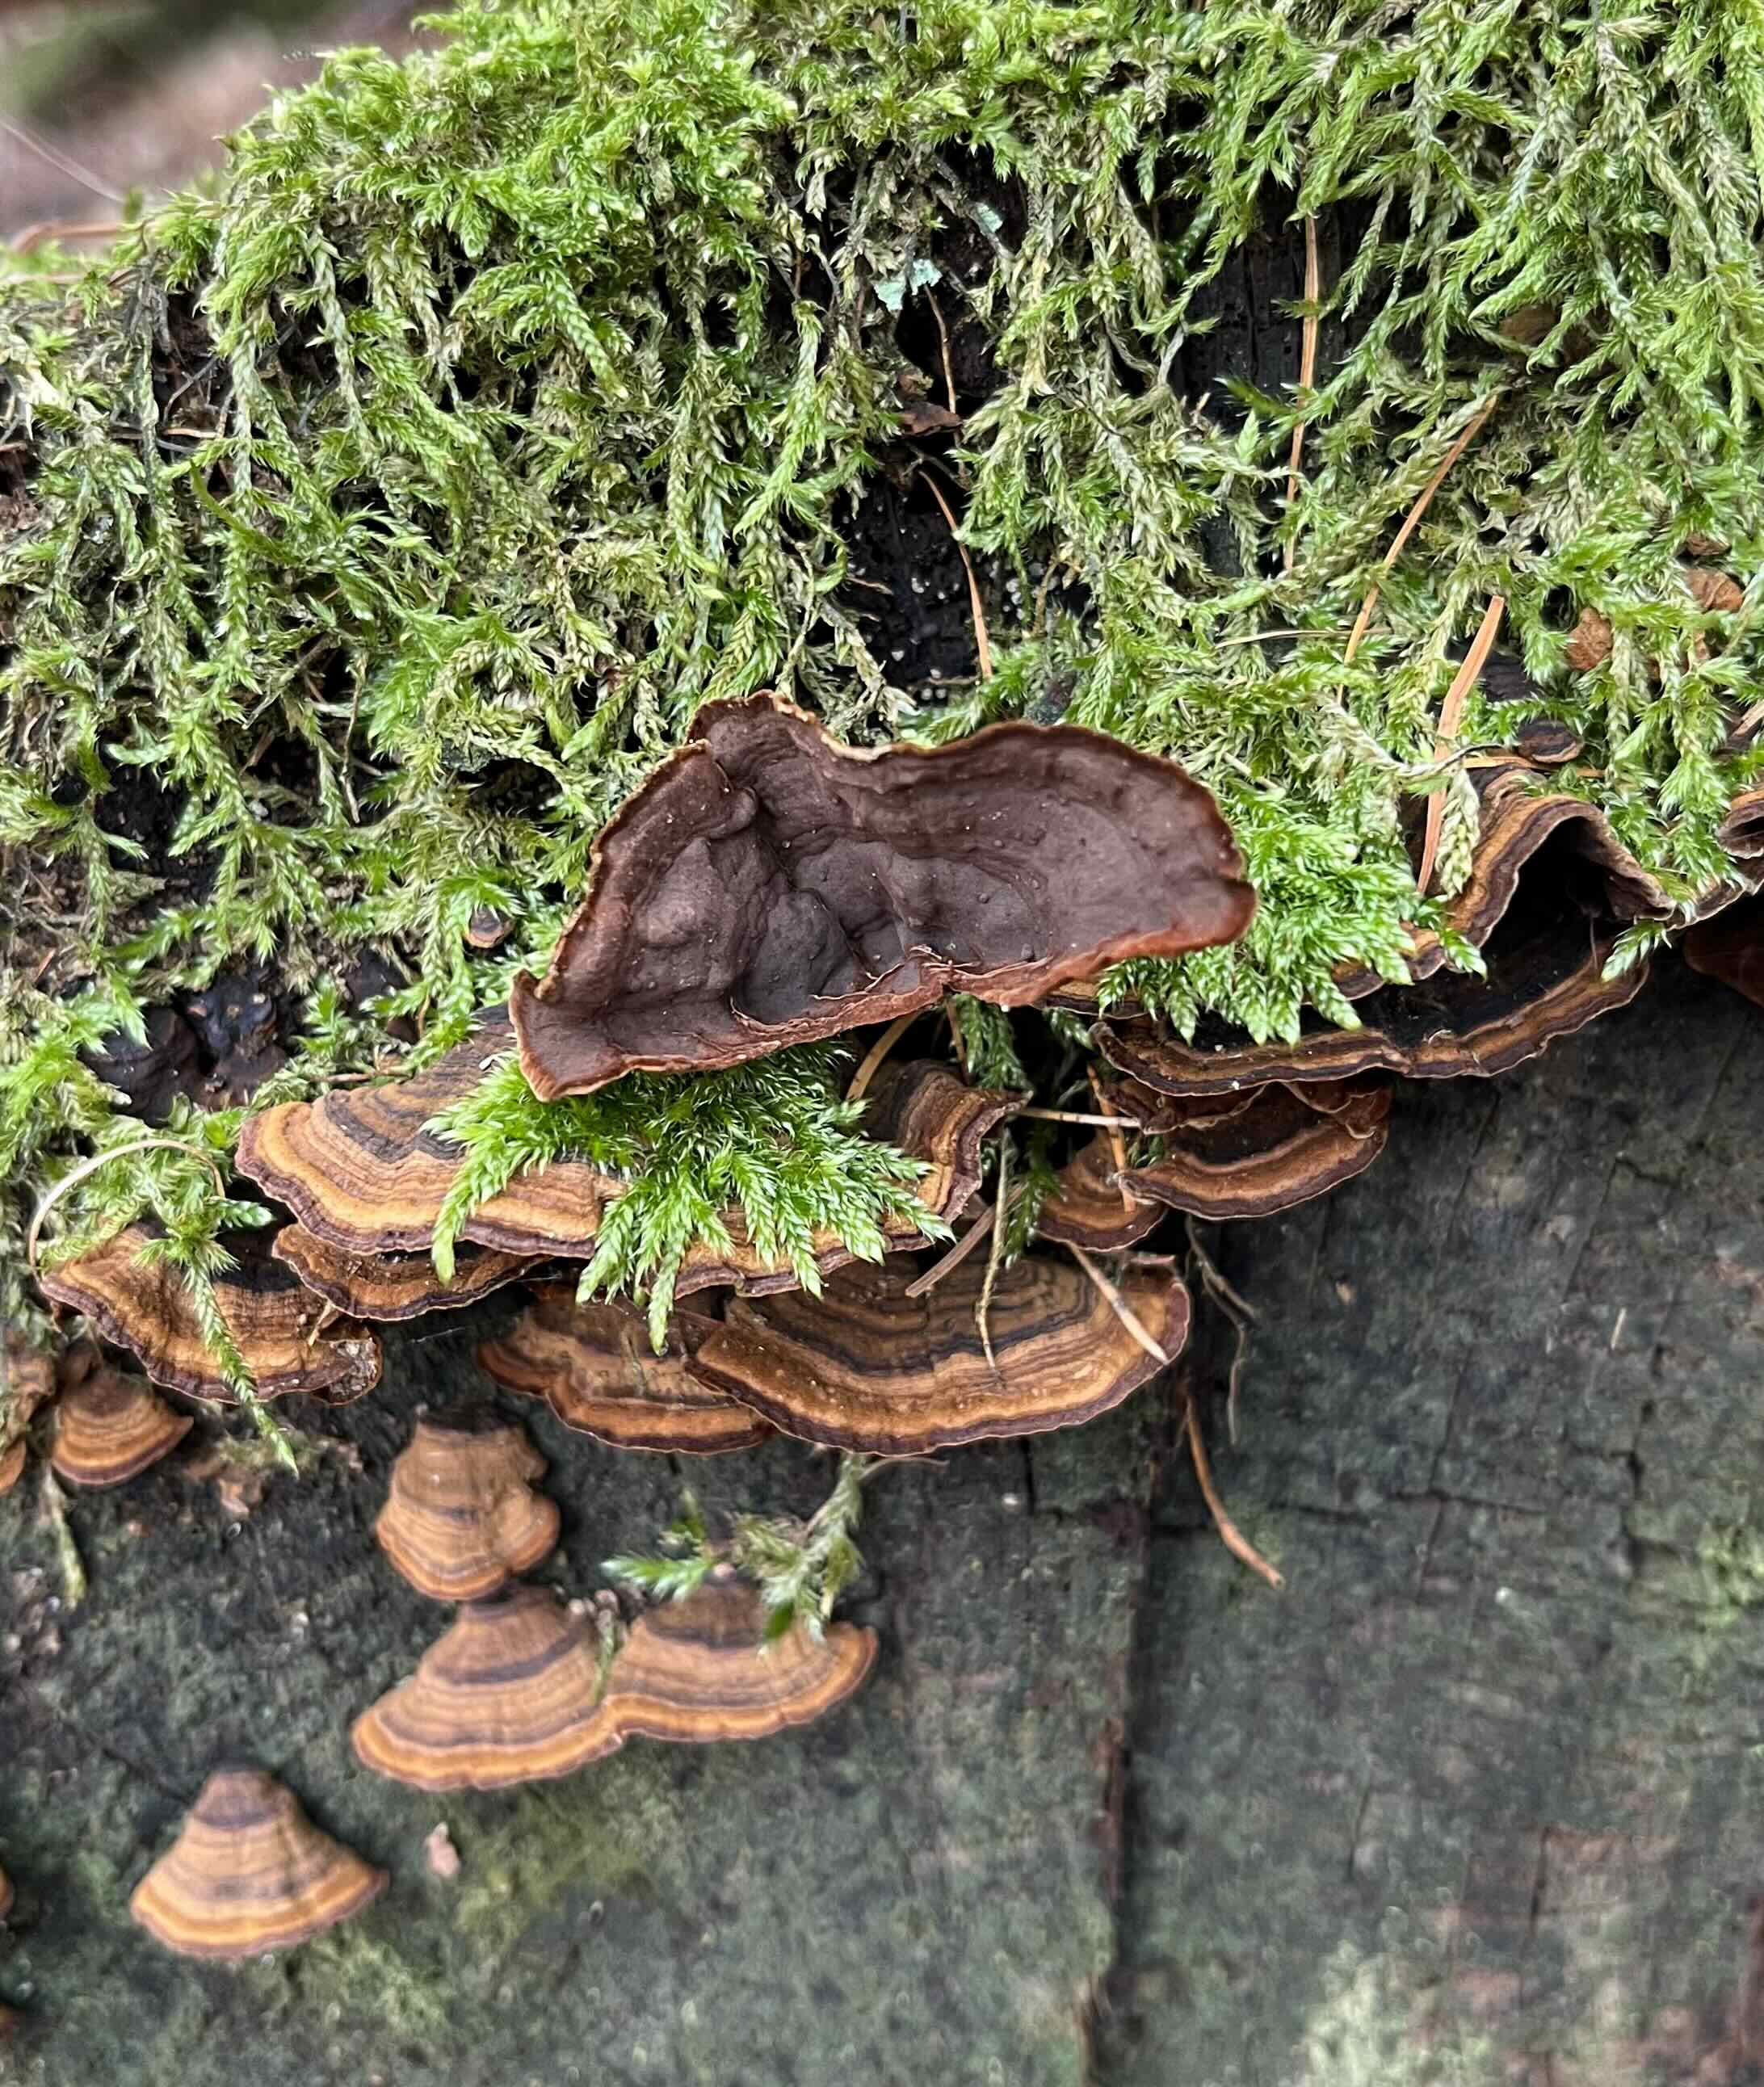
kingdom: Fungi
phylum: Basidiomycota
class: Agaricomycetes
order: Hymenochaetales
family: Hymenochaetaceae
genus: Hymenochaete
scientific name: Hymenochaete rubiginosa
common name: stiv ruslædersvamp
